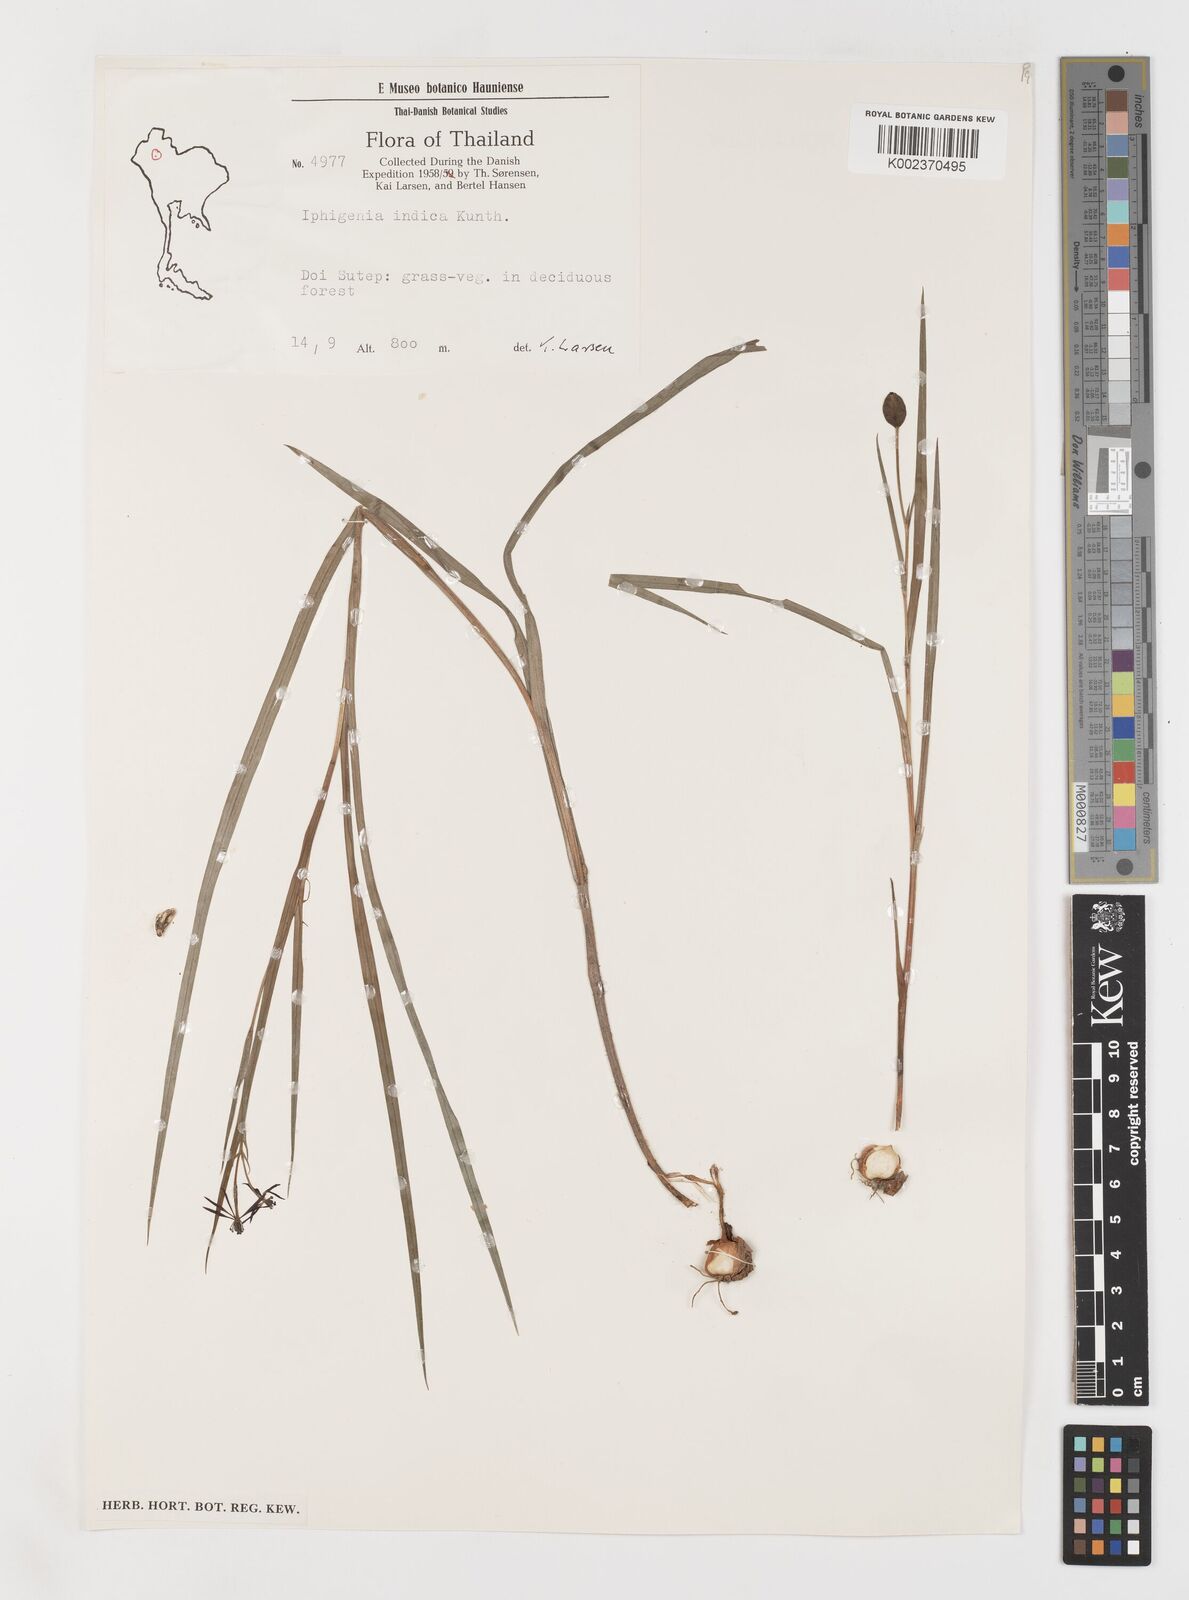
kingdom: Plantae
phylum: Tracheophyta
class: Liliopsida
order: Liliales
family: Colchicaceae
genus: Iphigenia
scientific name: Iphigenia indica
